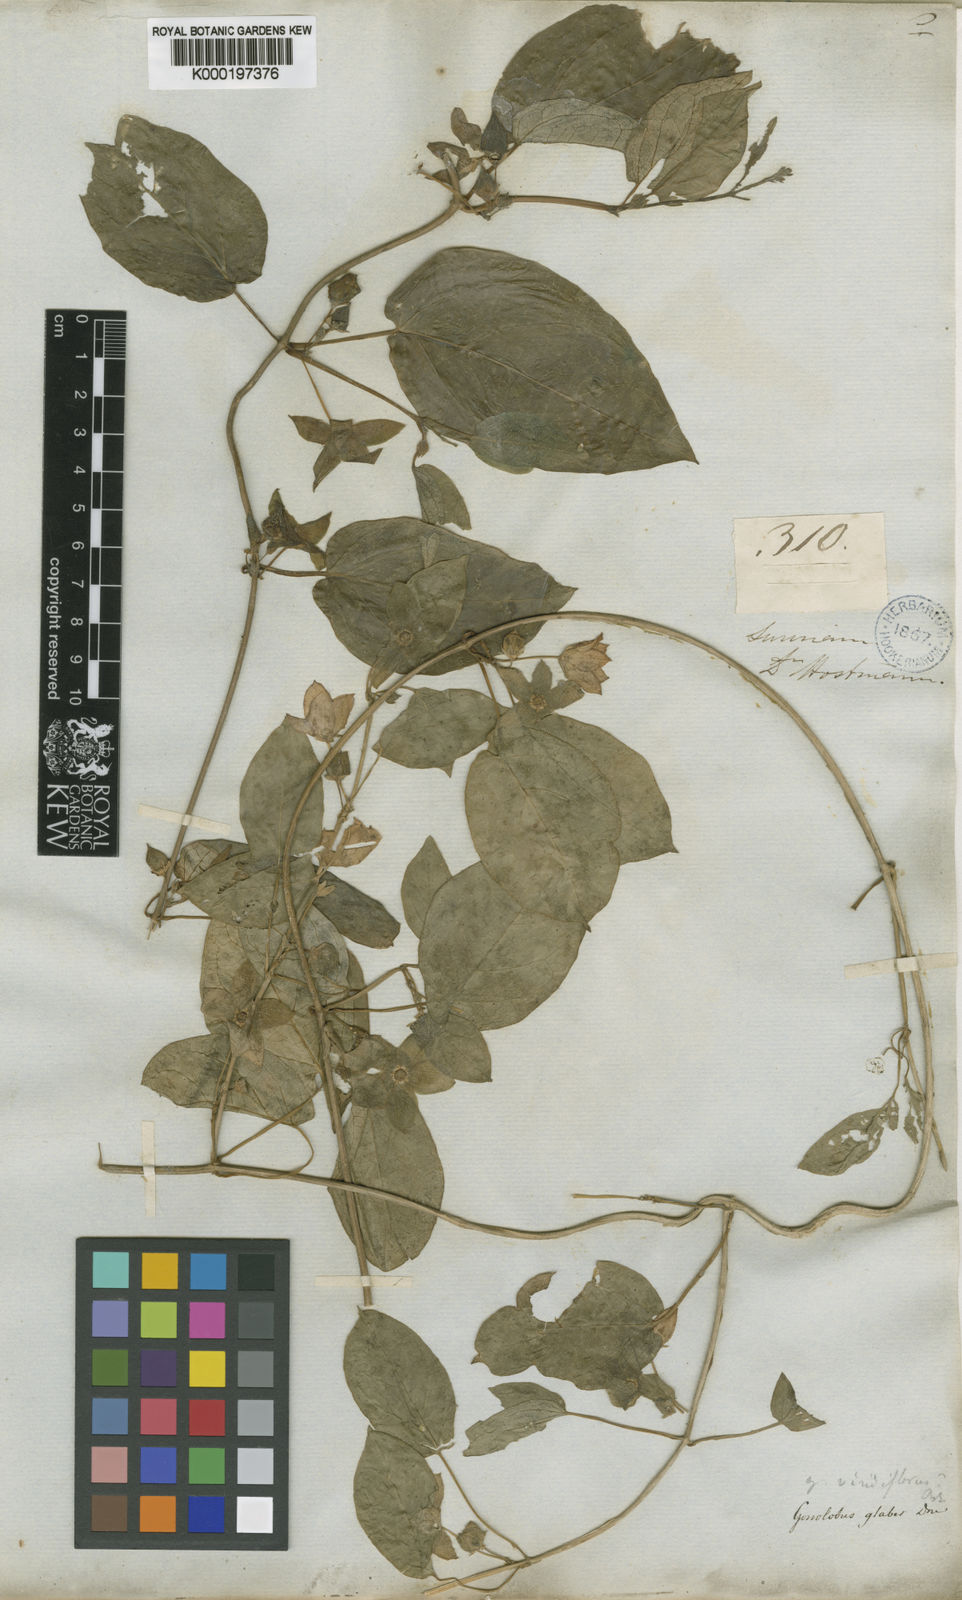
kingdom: Plantae
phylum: Tracheophyta
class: Magnoliopsida
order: Gentianales
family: Apocynaceae
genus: Chloropetalum
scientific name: Chloropetalum denticulatum
